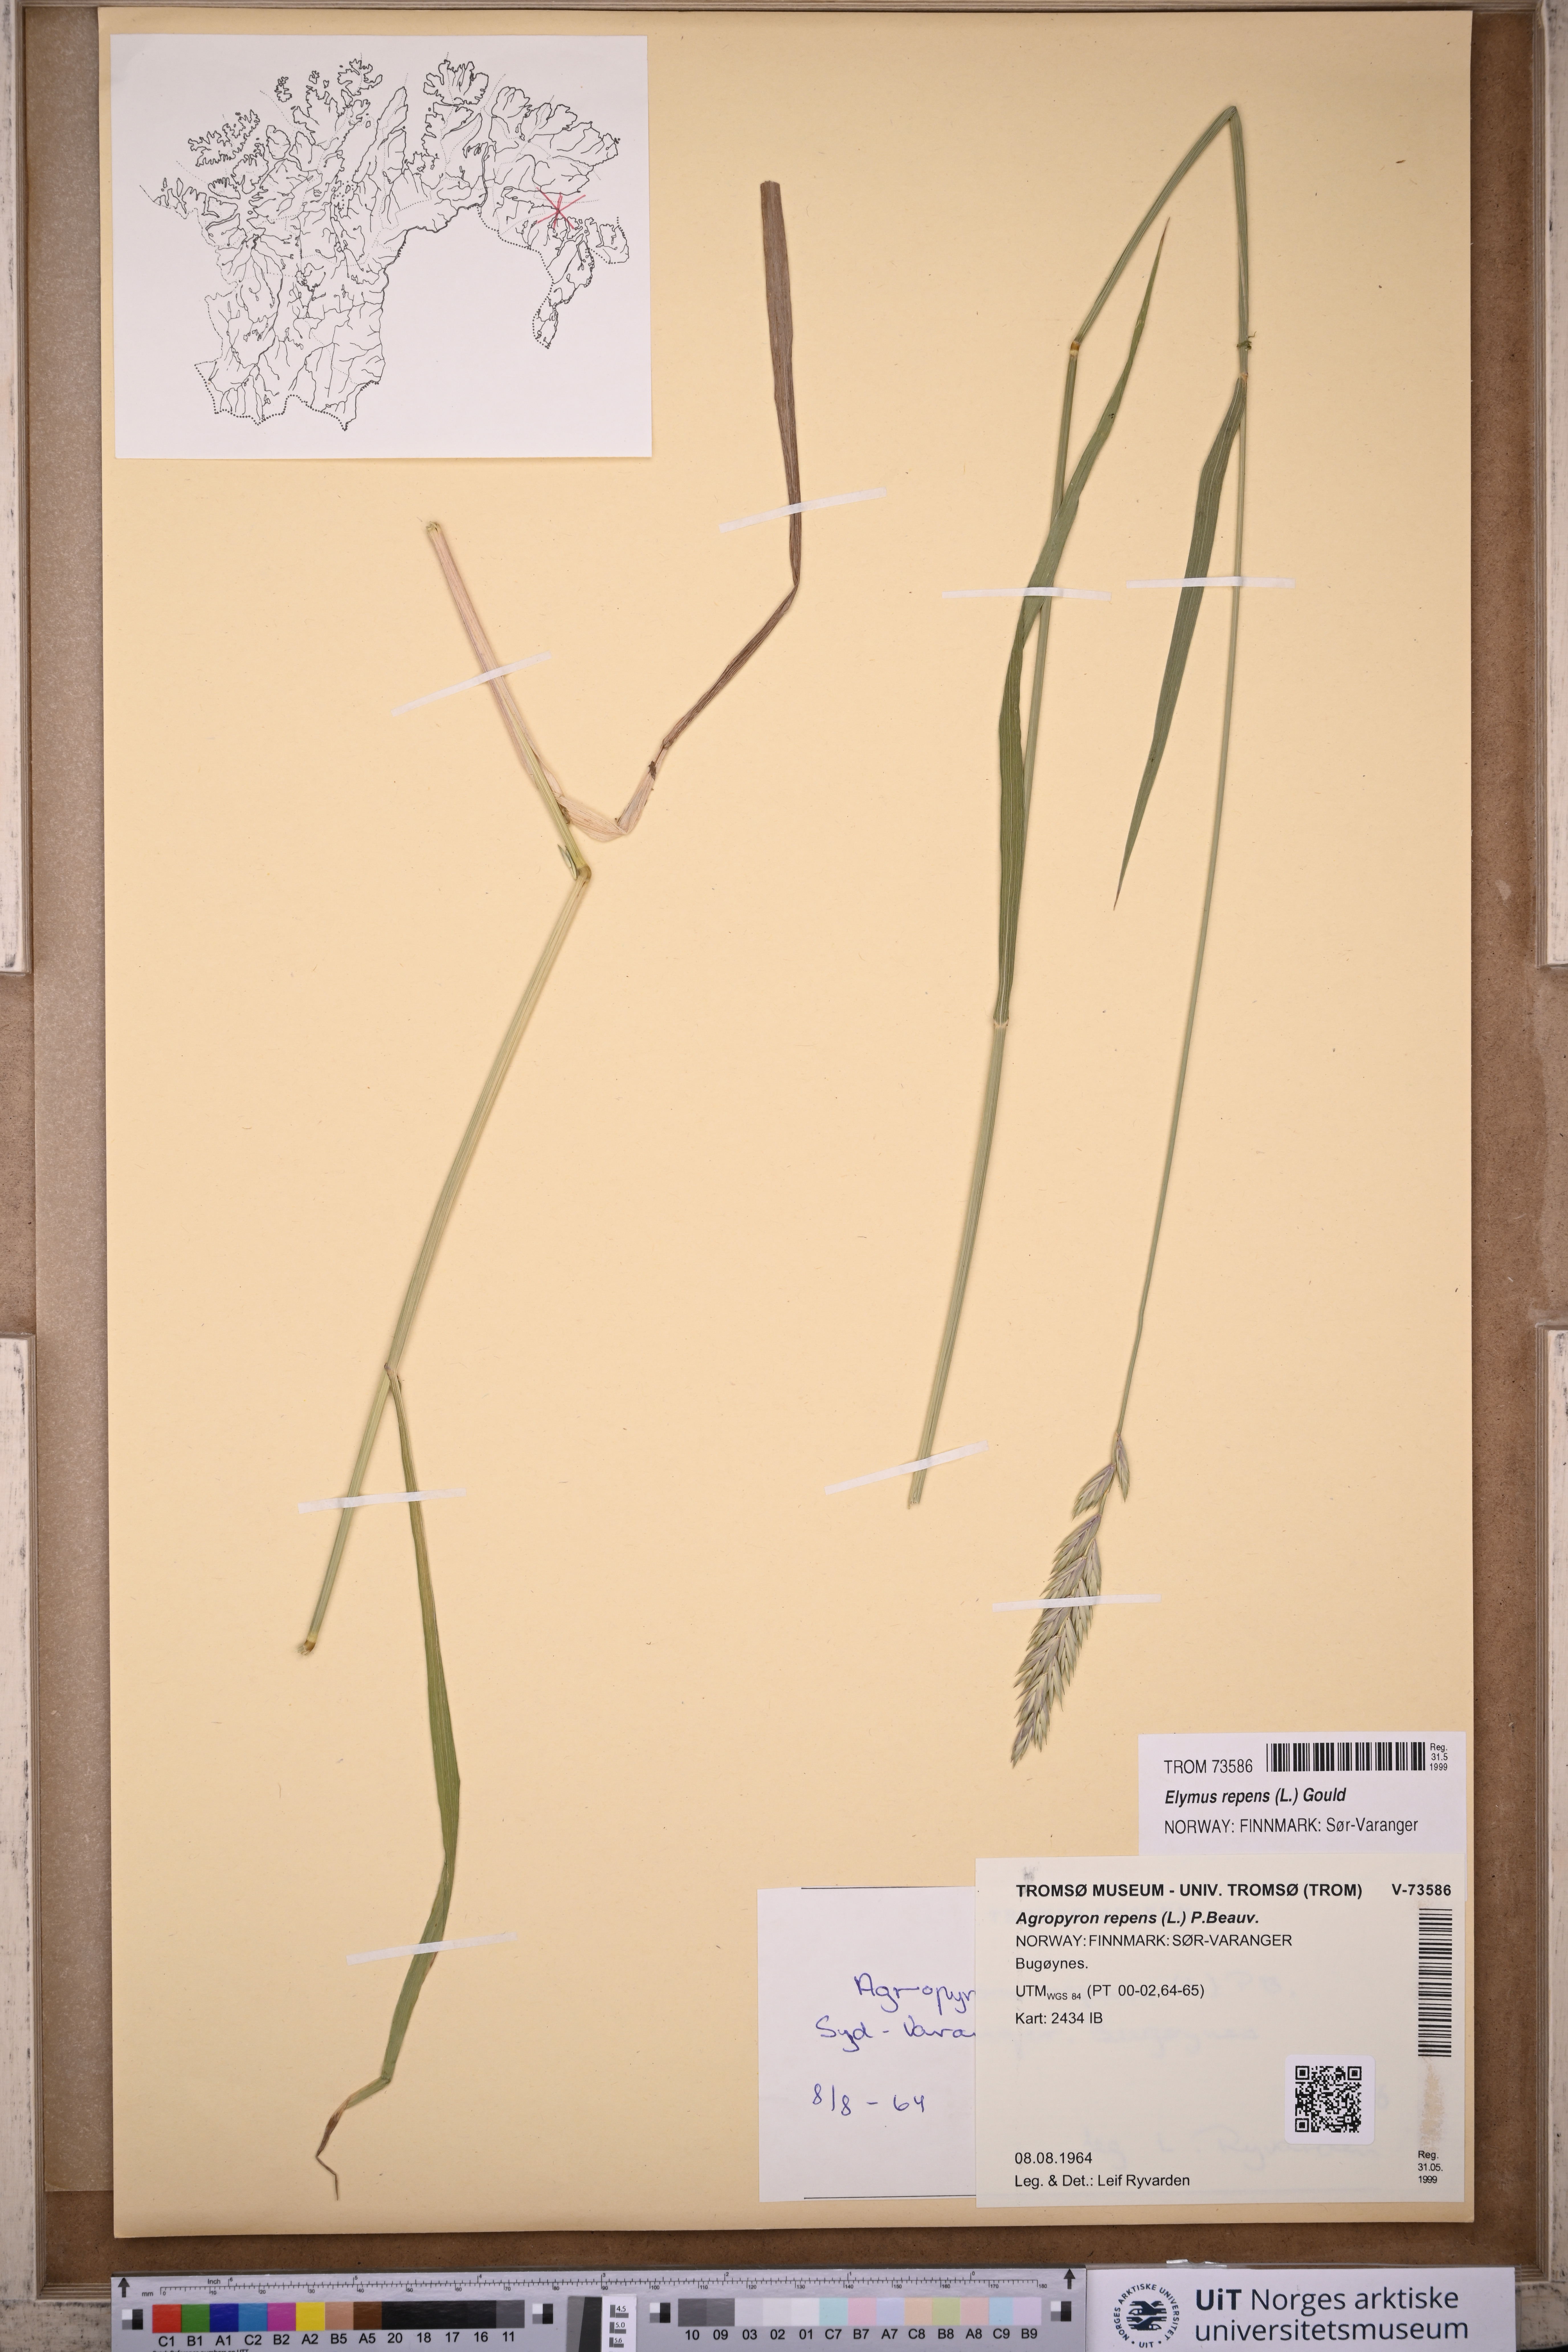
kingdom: Plantae
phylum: Tracheophyta
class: Liliopsida
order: Poales
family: Poaceae
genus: Elymus
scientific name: Elymus repens
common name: Quackgrass
